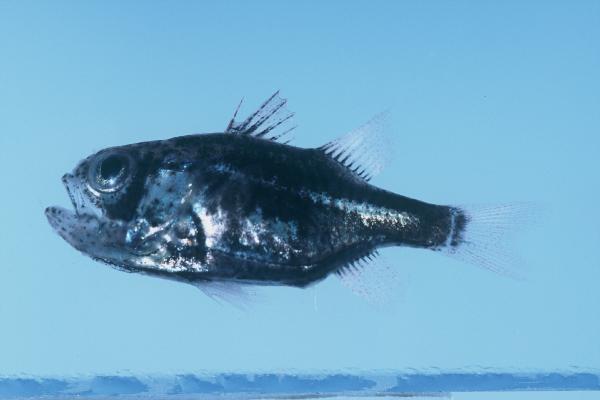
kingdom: Animalia
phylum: Chordata
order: Perciformes
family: Apogonidae
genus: Siphamia
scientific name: Siphamia mossambica
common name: Sea urchin cardinal
